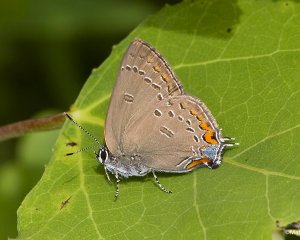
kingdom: Animalia
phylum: Arthropoda
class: Insecta
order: Lepidoptera
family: Lycaenidae
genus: Satyrium
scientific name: Satyrium edwardsii
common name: Edwards' Hairstreak
